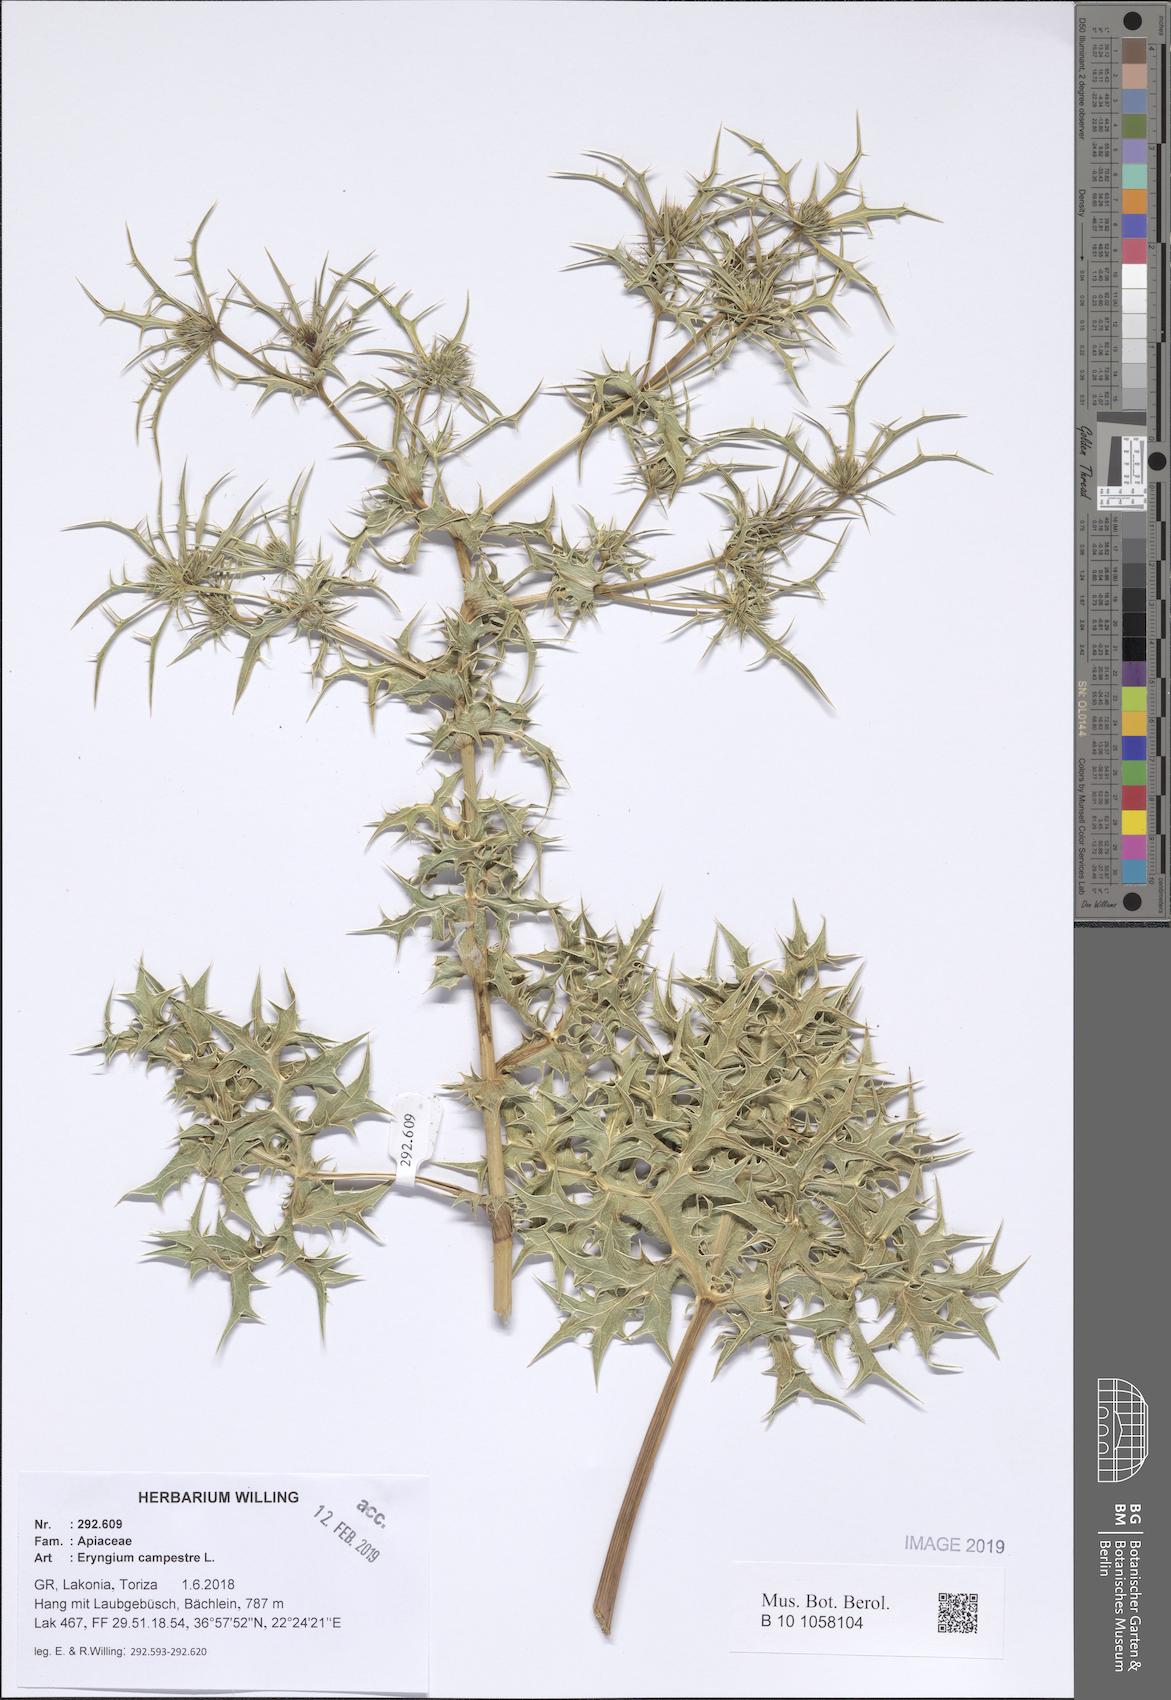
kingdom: Plantae
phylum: Tracheophyta
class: Magnoliopsida
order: Apiales
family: Apiaceae
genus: Eryngium
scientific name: Eryngium campestre
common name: Field eryngo
